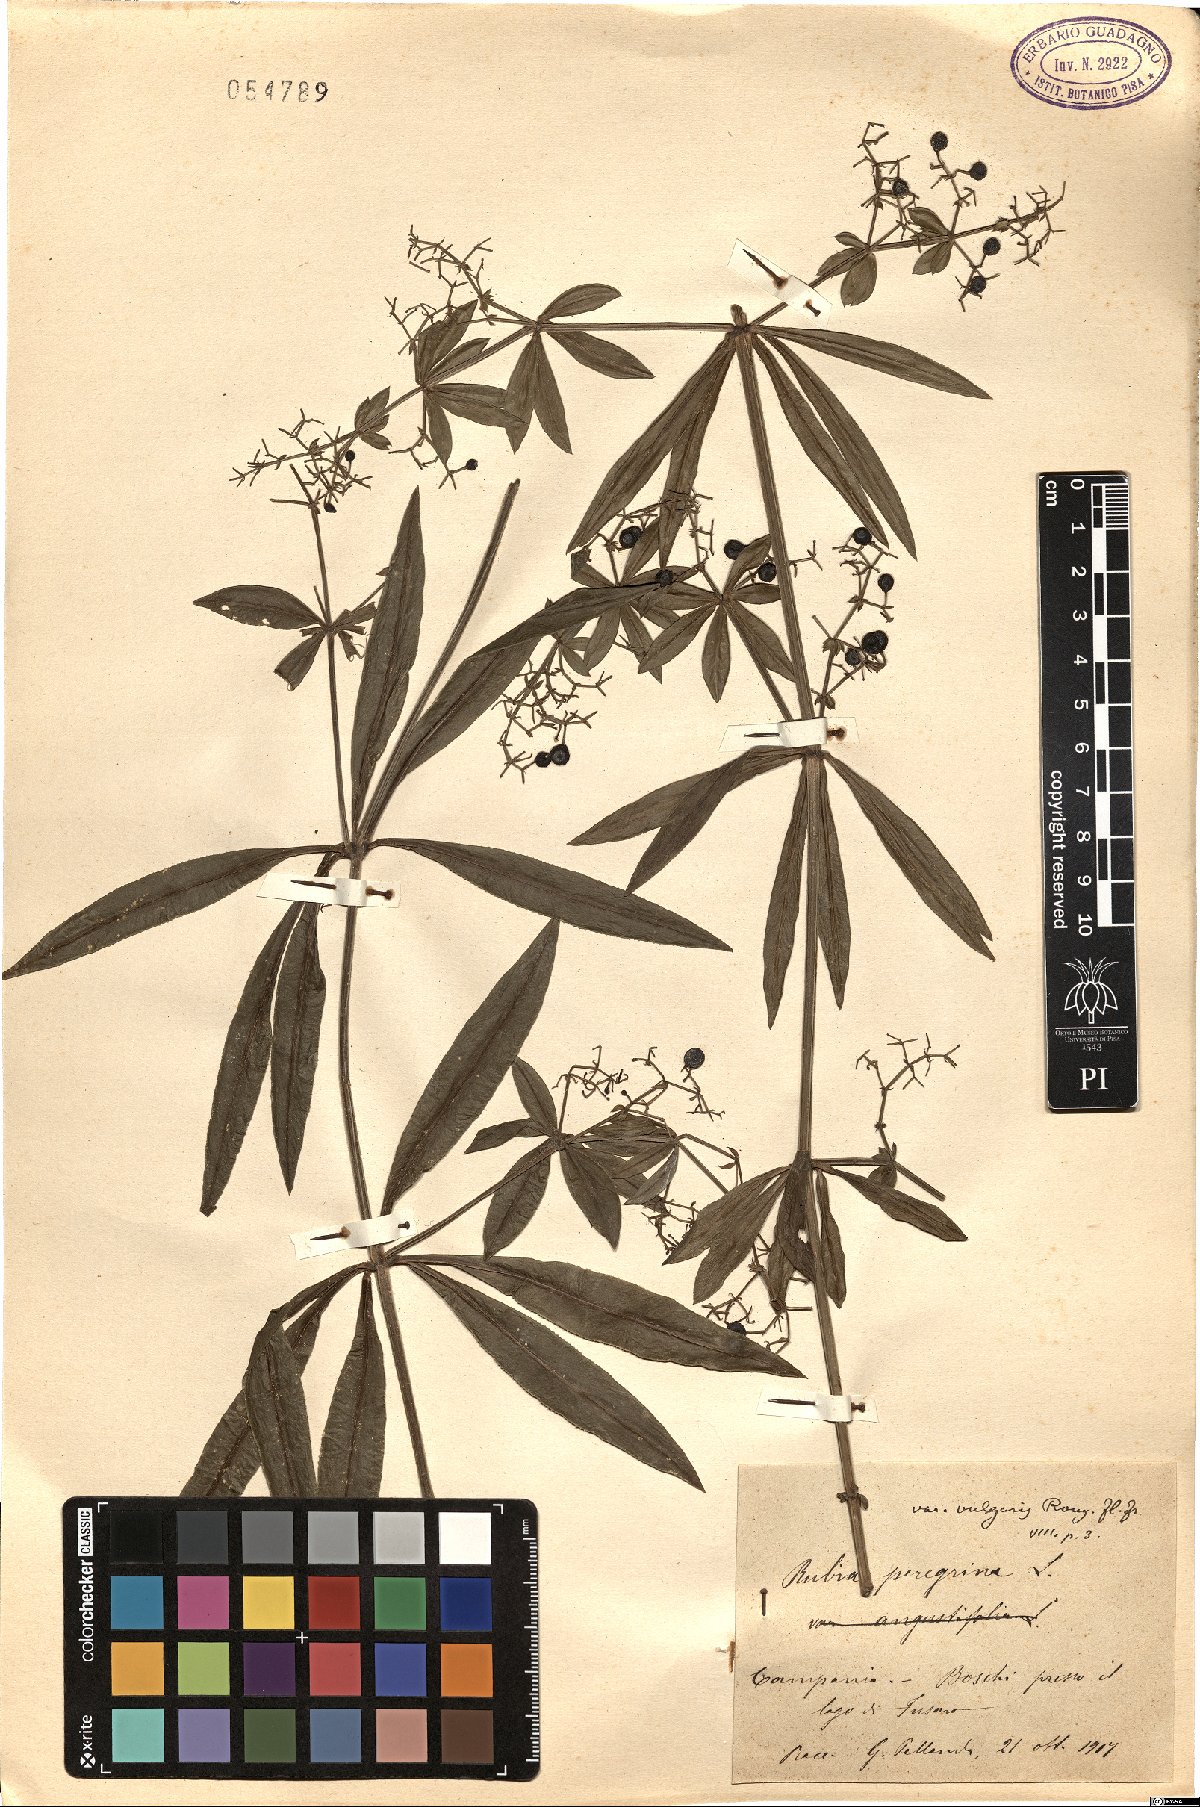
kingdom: Plantae
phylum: Tracheophyta
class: Magnoliopsida
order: Gentianales
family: Rubiaceae
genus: Rubia
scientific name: Rubia peregrina
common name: Wild madder
